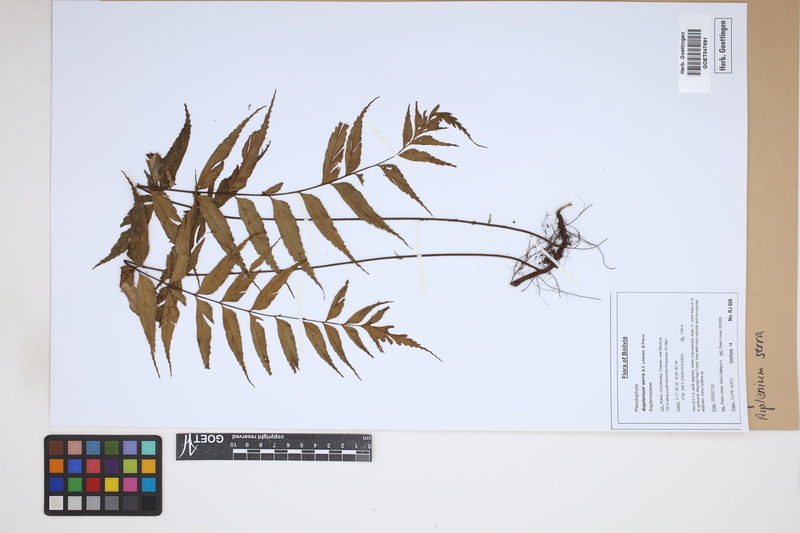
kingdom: Plantae
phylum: Tracheophyta
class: Polypodiopsida
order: Polypodiales
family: Aspleniaceae
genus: Asplenium
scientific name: Asplenium serra
